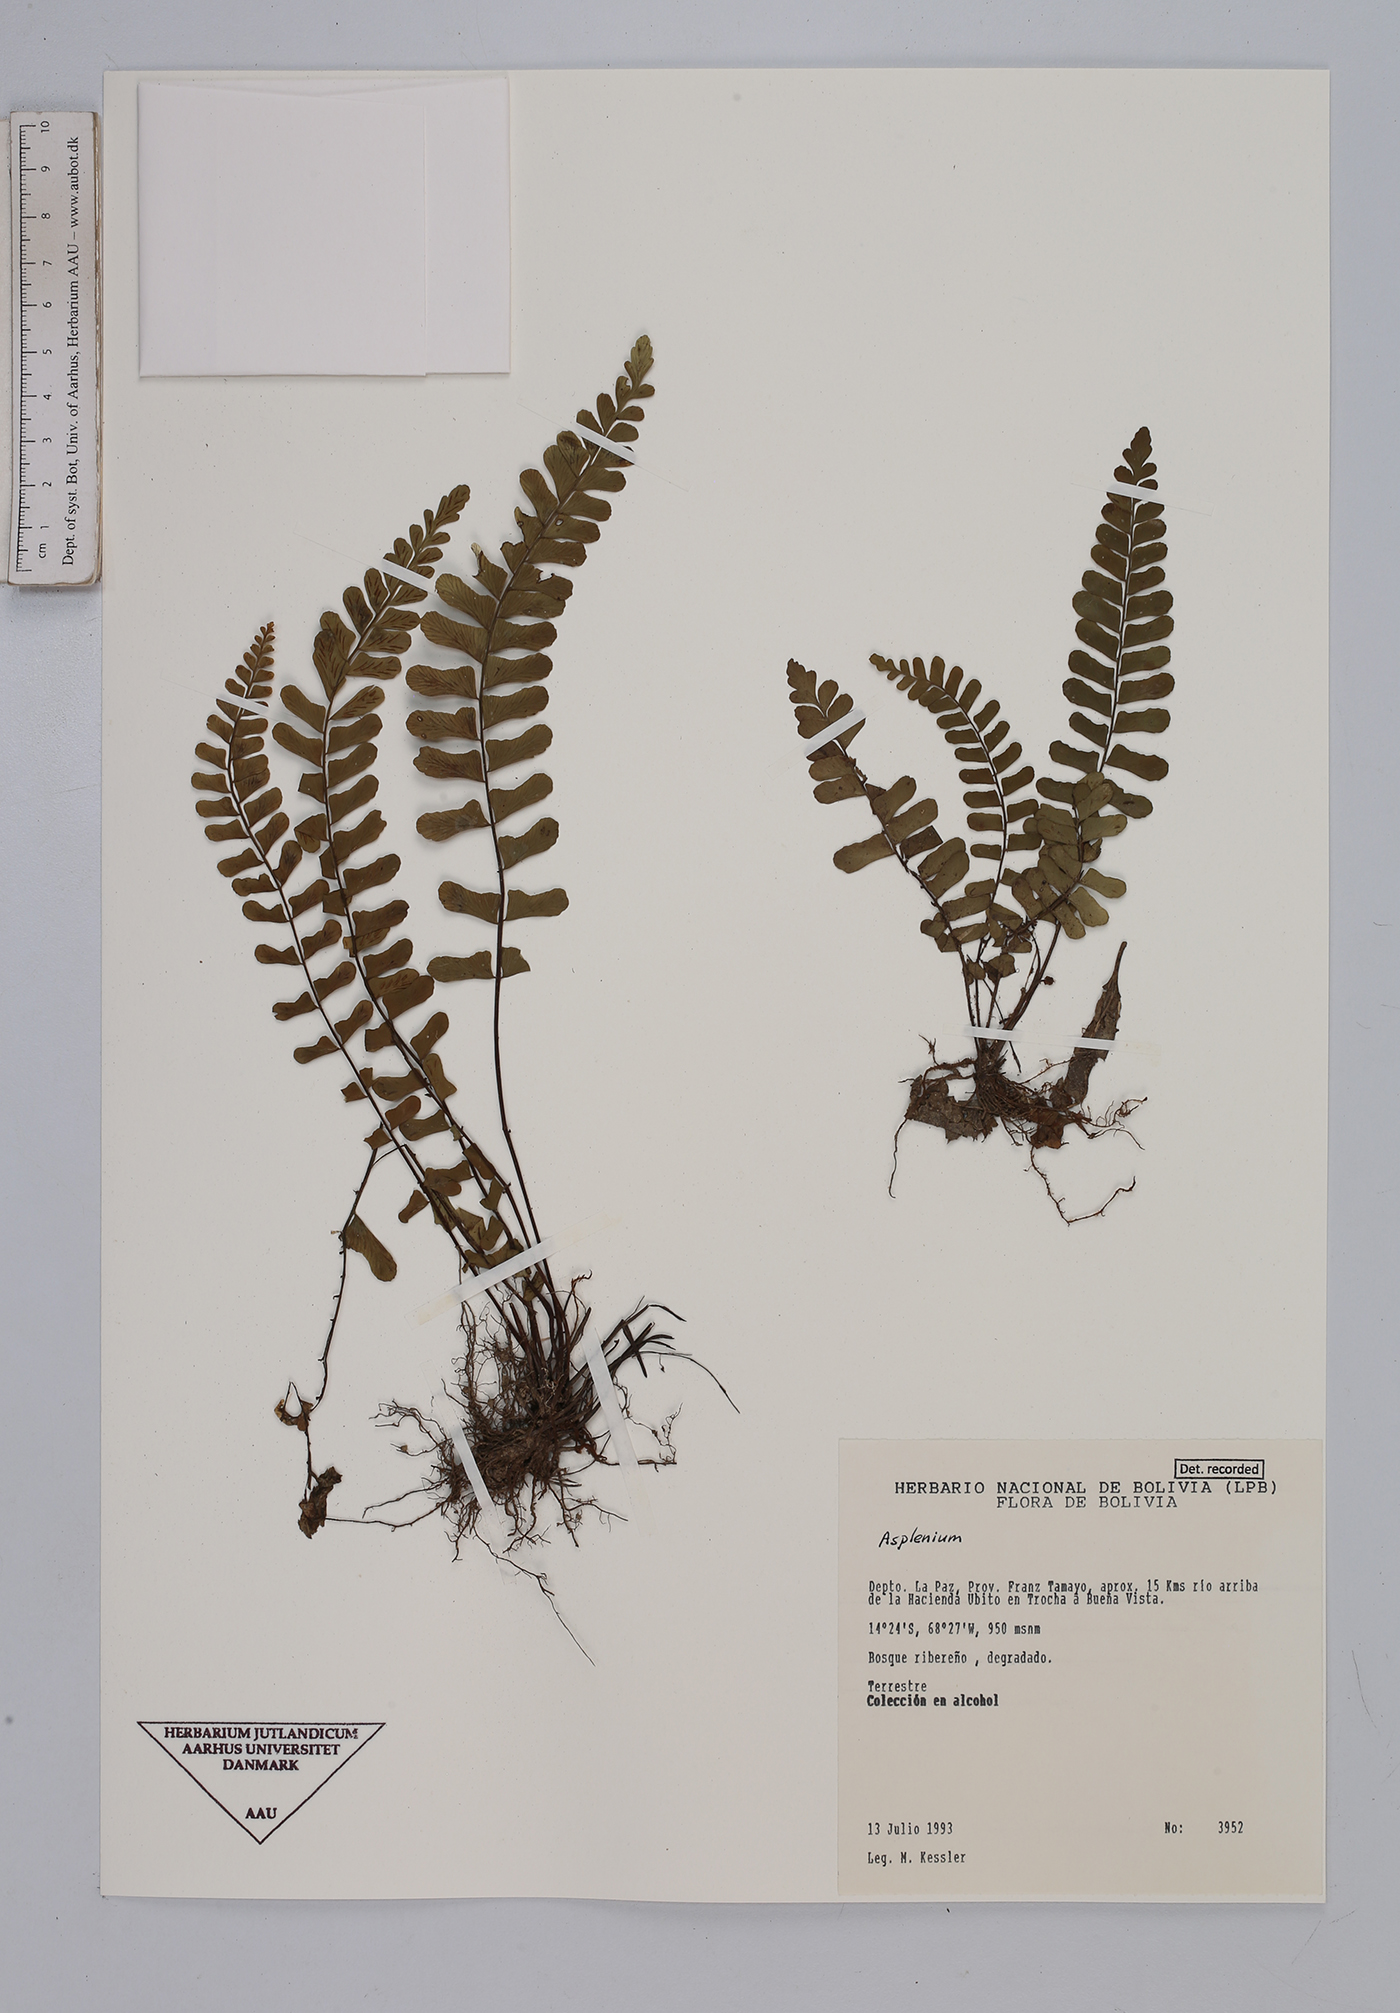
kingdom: Plantae
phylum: Tracheophyta
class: Polypodiopsida
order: Polypodiales
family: Aspleniaceae
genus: Asplenium
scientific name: Asplenium
